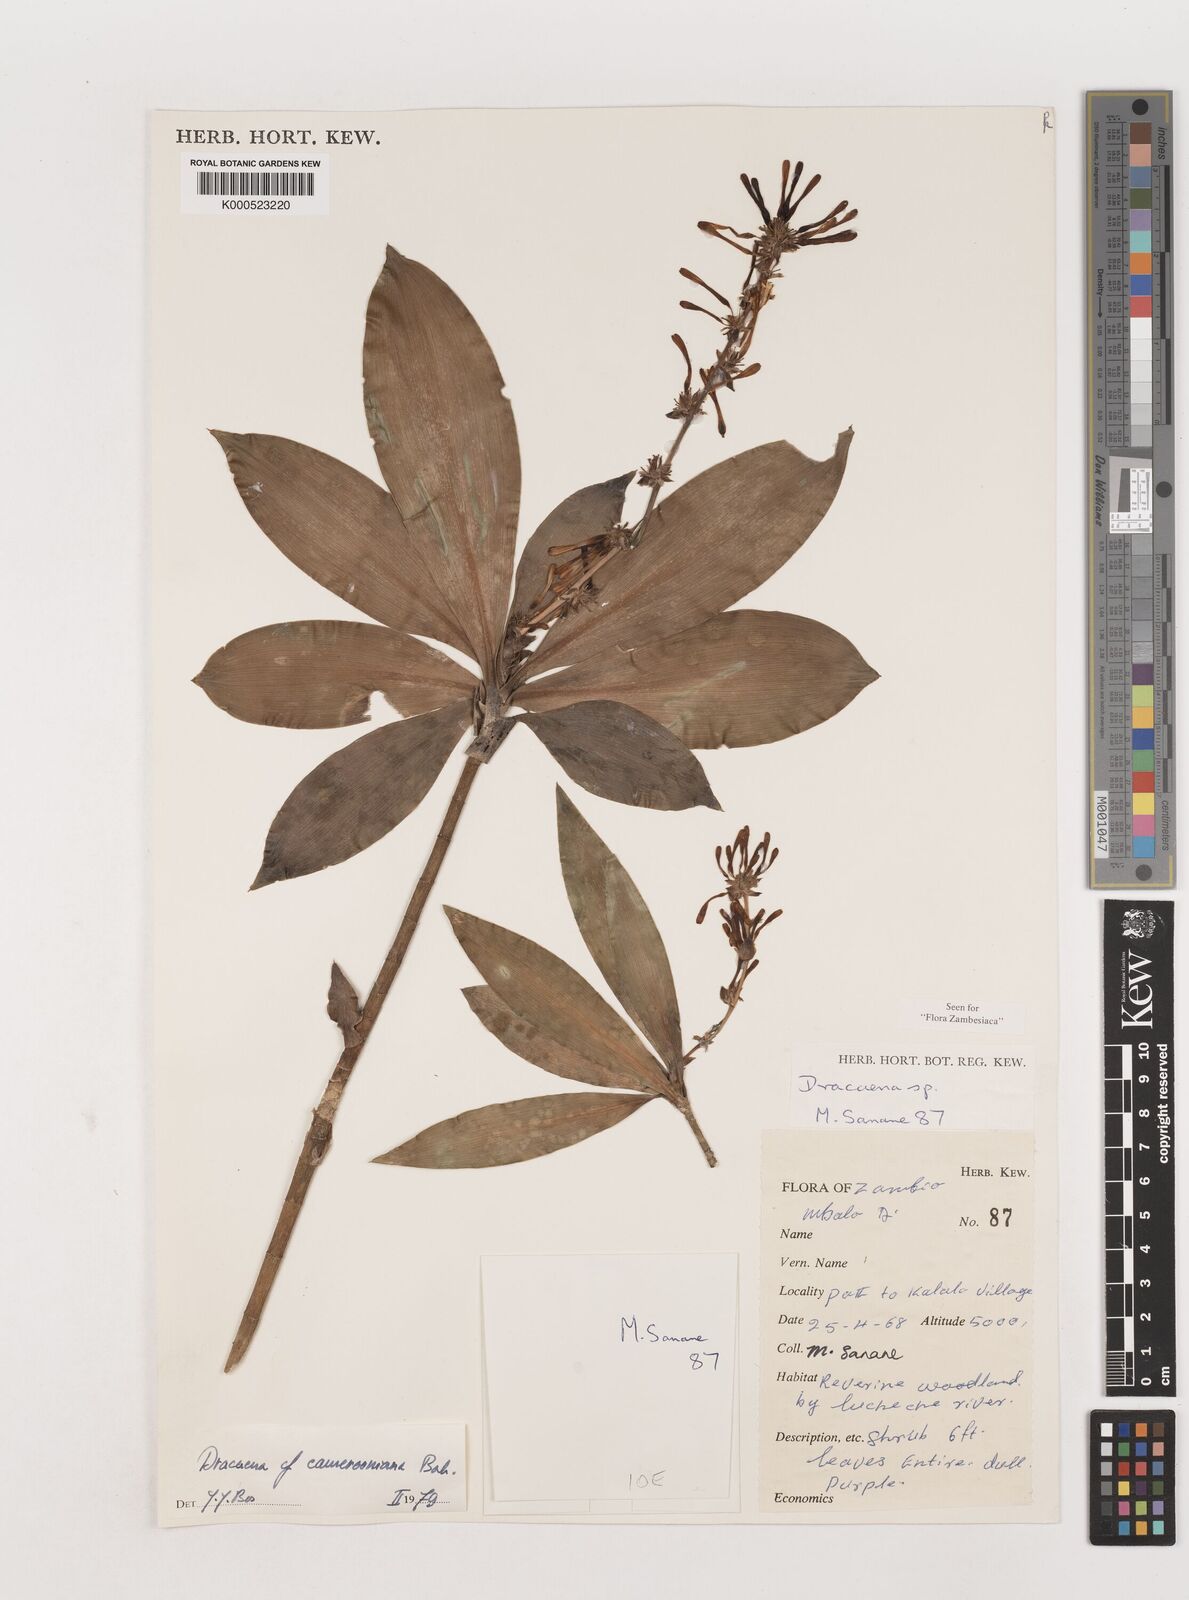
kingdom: Plantae
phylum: Tracheophyta
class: Liliopsida
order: Asparagales
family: Asparagaceae
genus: Dracaena
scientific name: Dracaena camerooniana
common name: Dragon tree
